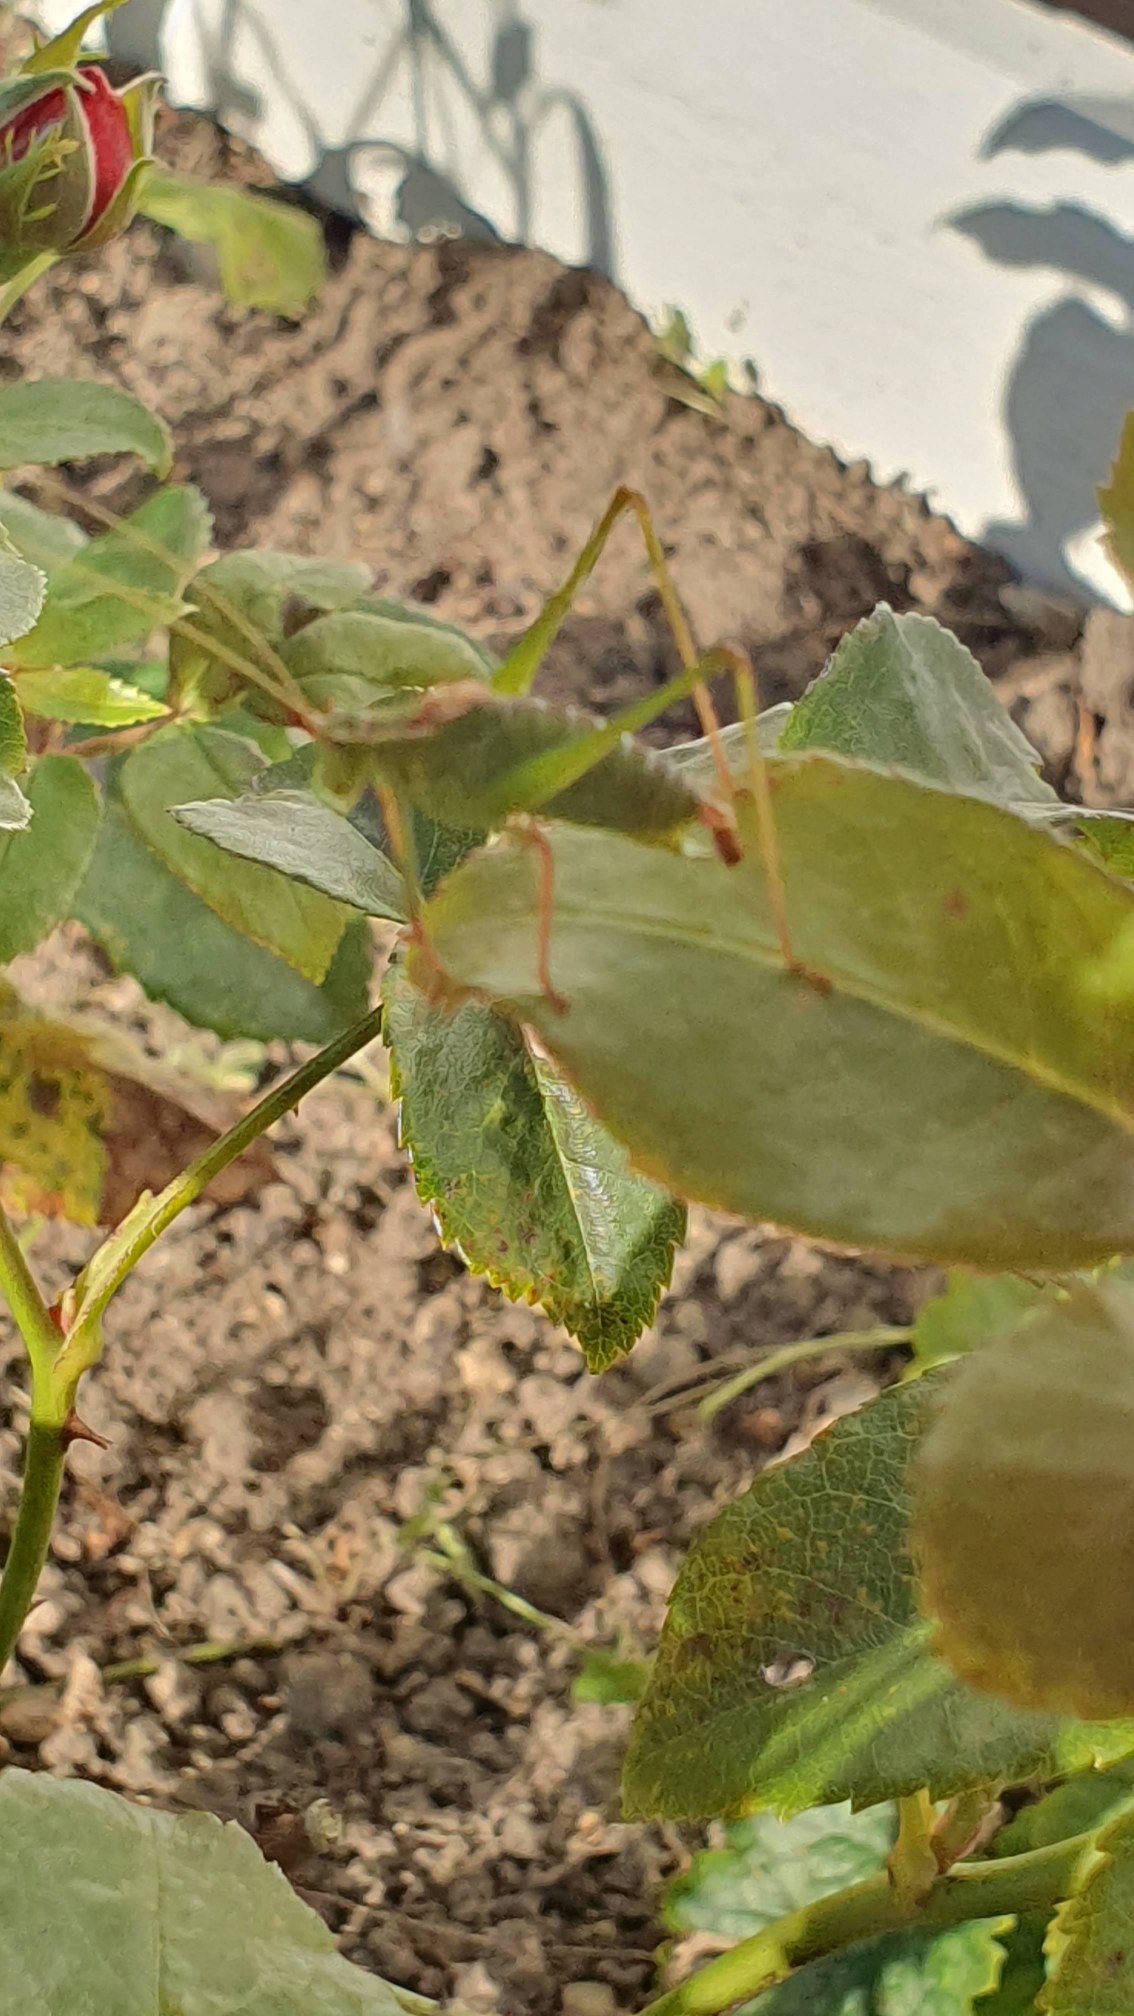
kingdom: Animalia
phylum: Arthropoda
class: Insecta
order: Orthoptera
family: Tettigoniidae
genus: Leptophyes
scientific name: Leptophyes punctatissima
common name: Krumknivgræshoppe
